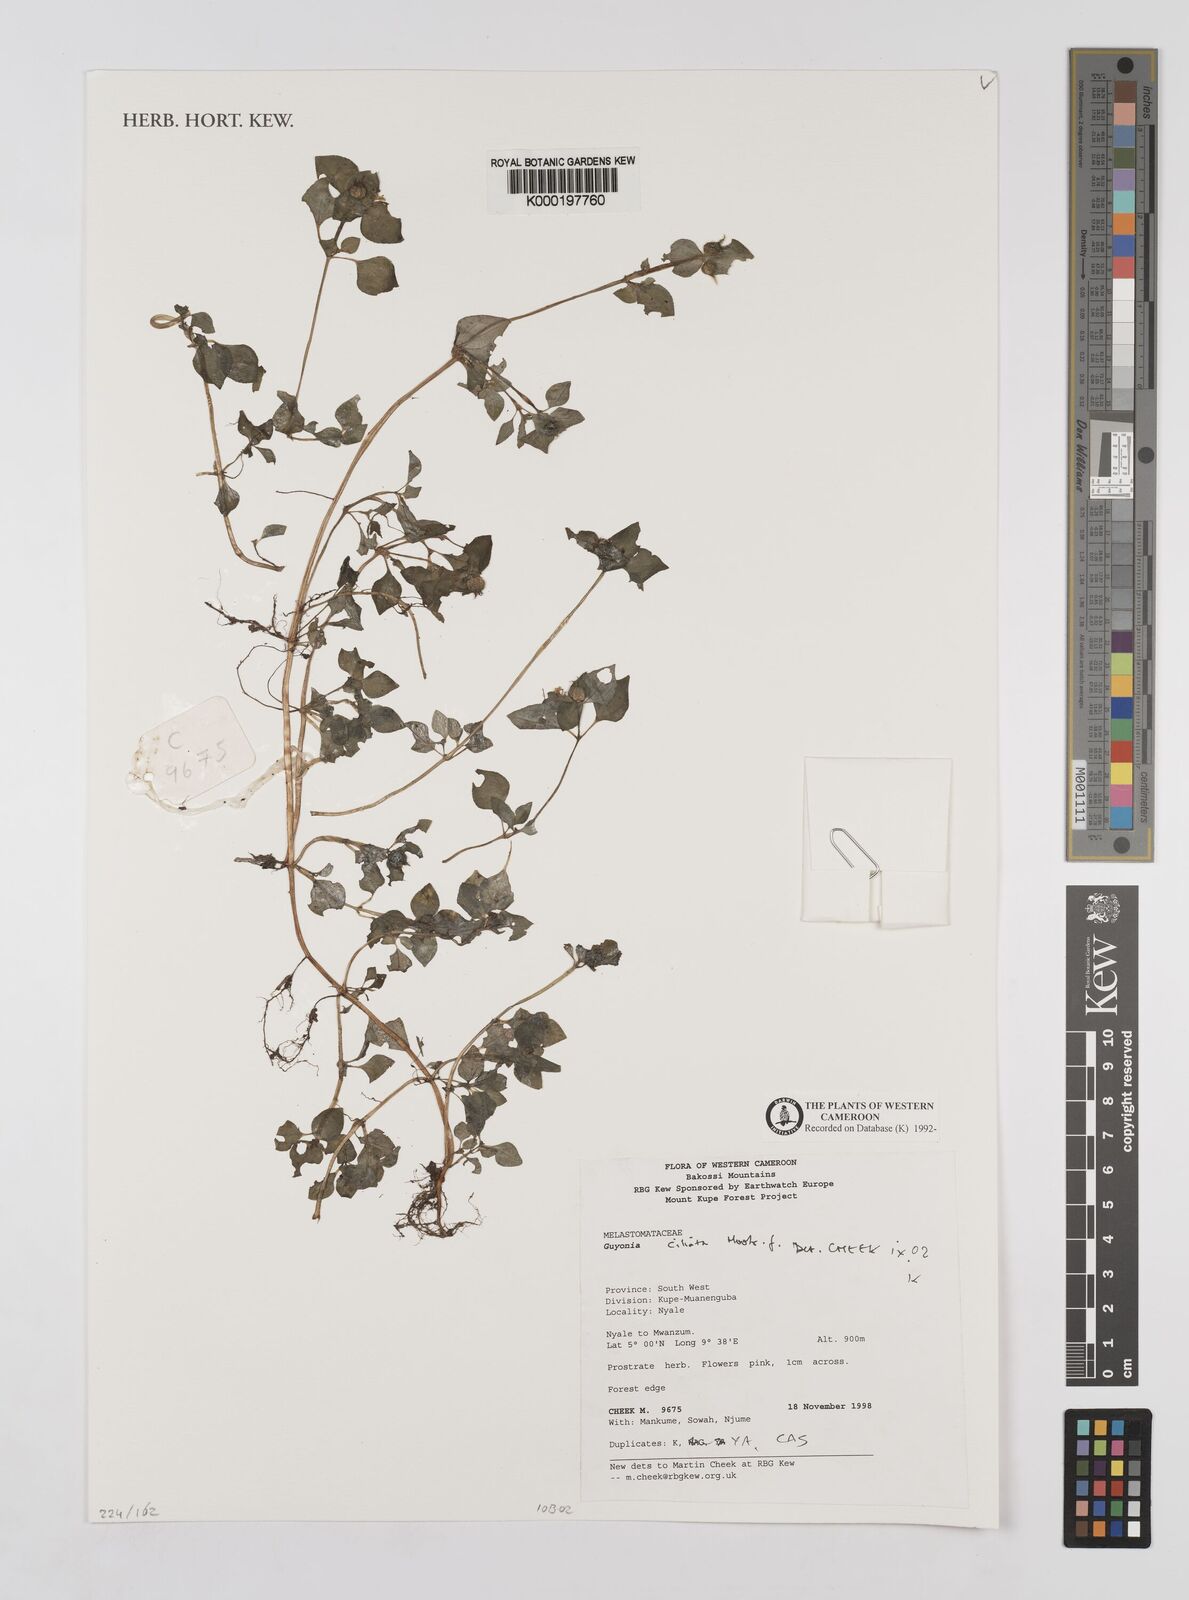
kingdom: Plantae
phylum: Tracheophyta
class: Magnoliopsida
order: Myrtales
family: Melastomataceae
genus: Guyonia
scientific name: Guyonia ciliata
